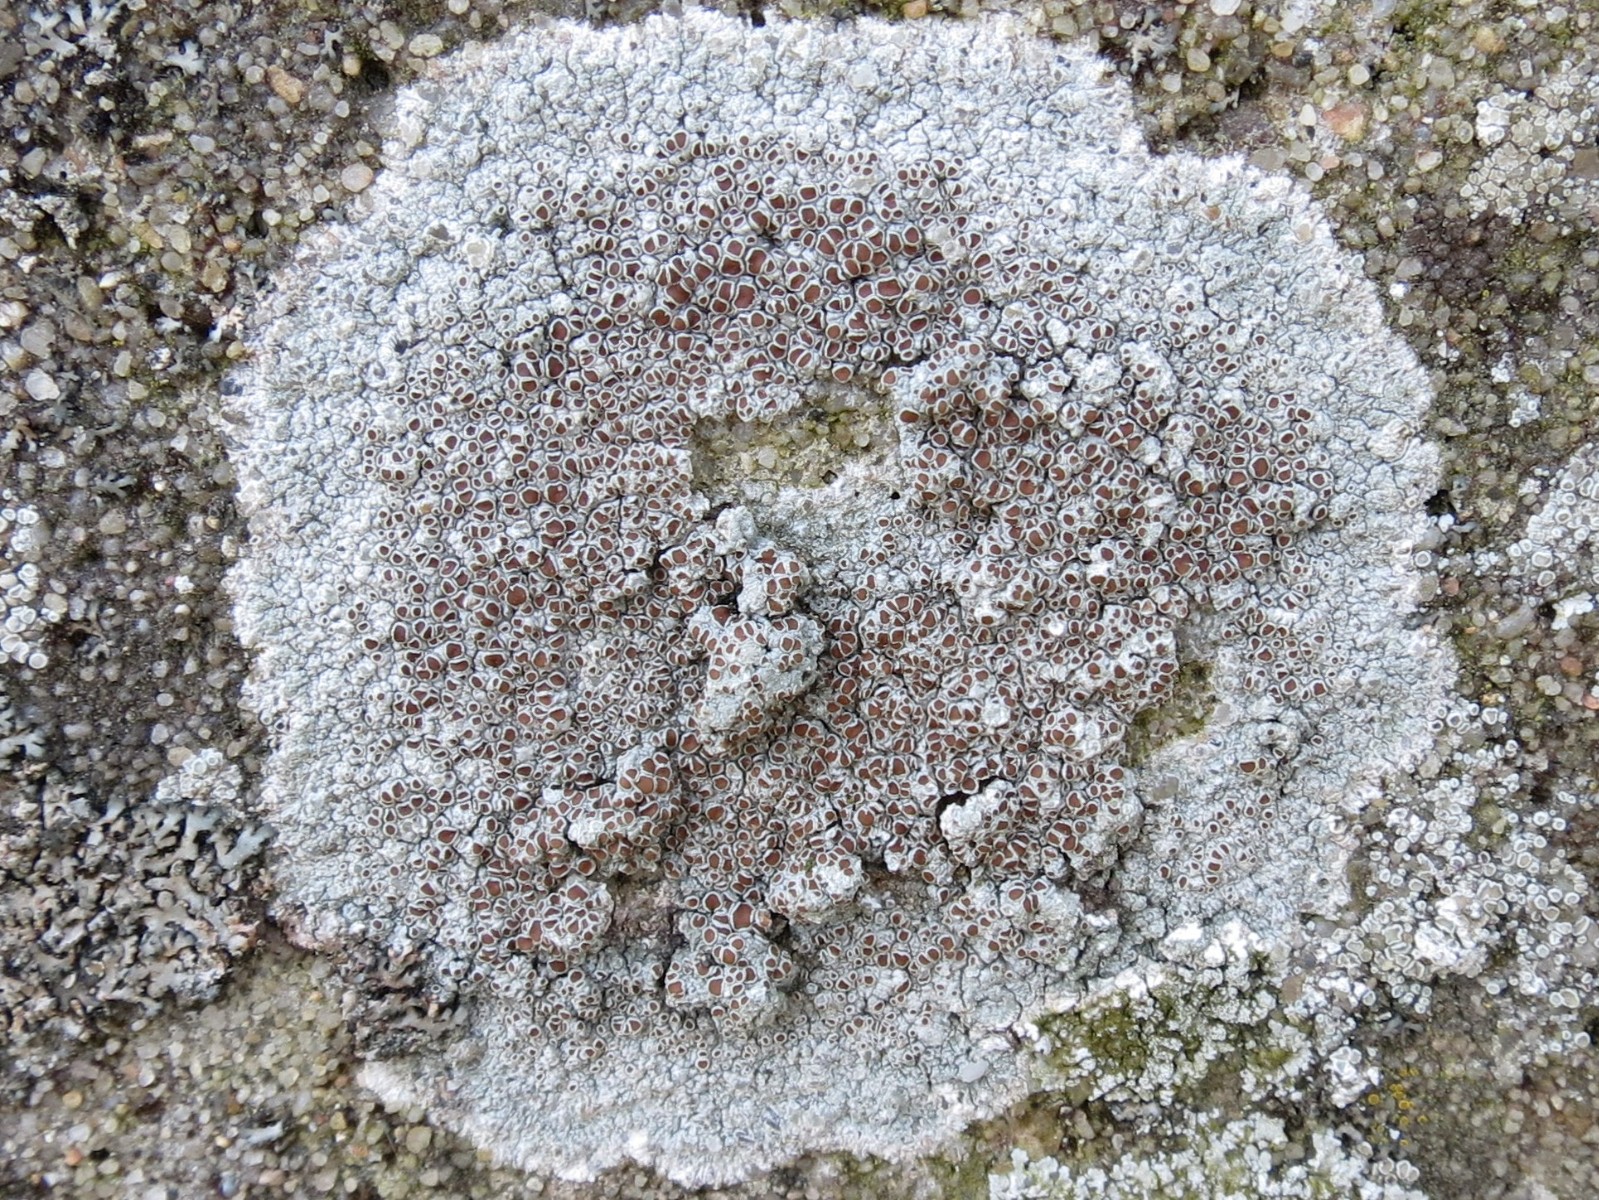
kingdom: Fungi
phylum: Ascomycota
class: Lecanoromycetes
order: Lecanorales
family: Lecanoraceae
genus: Lecanora
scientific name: Lecanora campestris
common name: mur-kantskivelav
